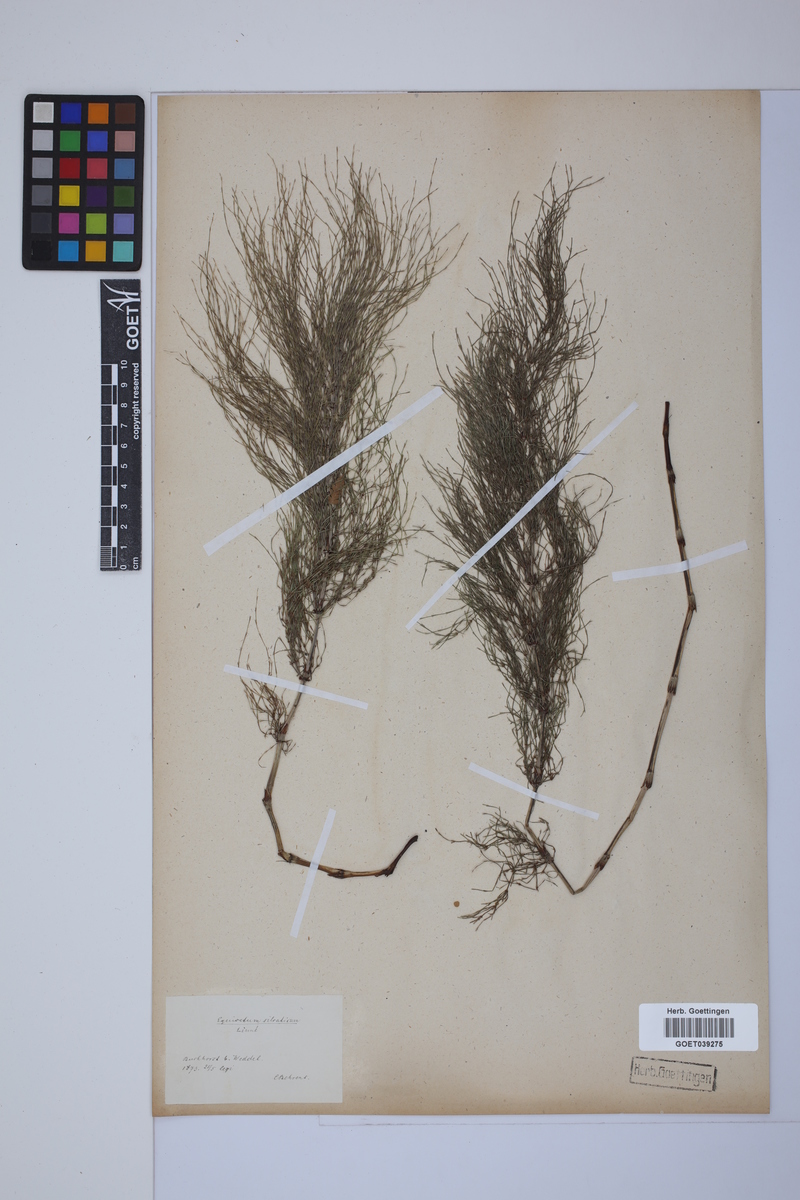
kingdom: Plantae
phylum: Tracheophyta
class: Polypodiopsida
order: Equisetales
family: Equisetaceae
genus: Equisetum
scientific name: Equisetum sylvaticum
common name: Wood horsetail
